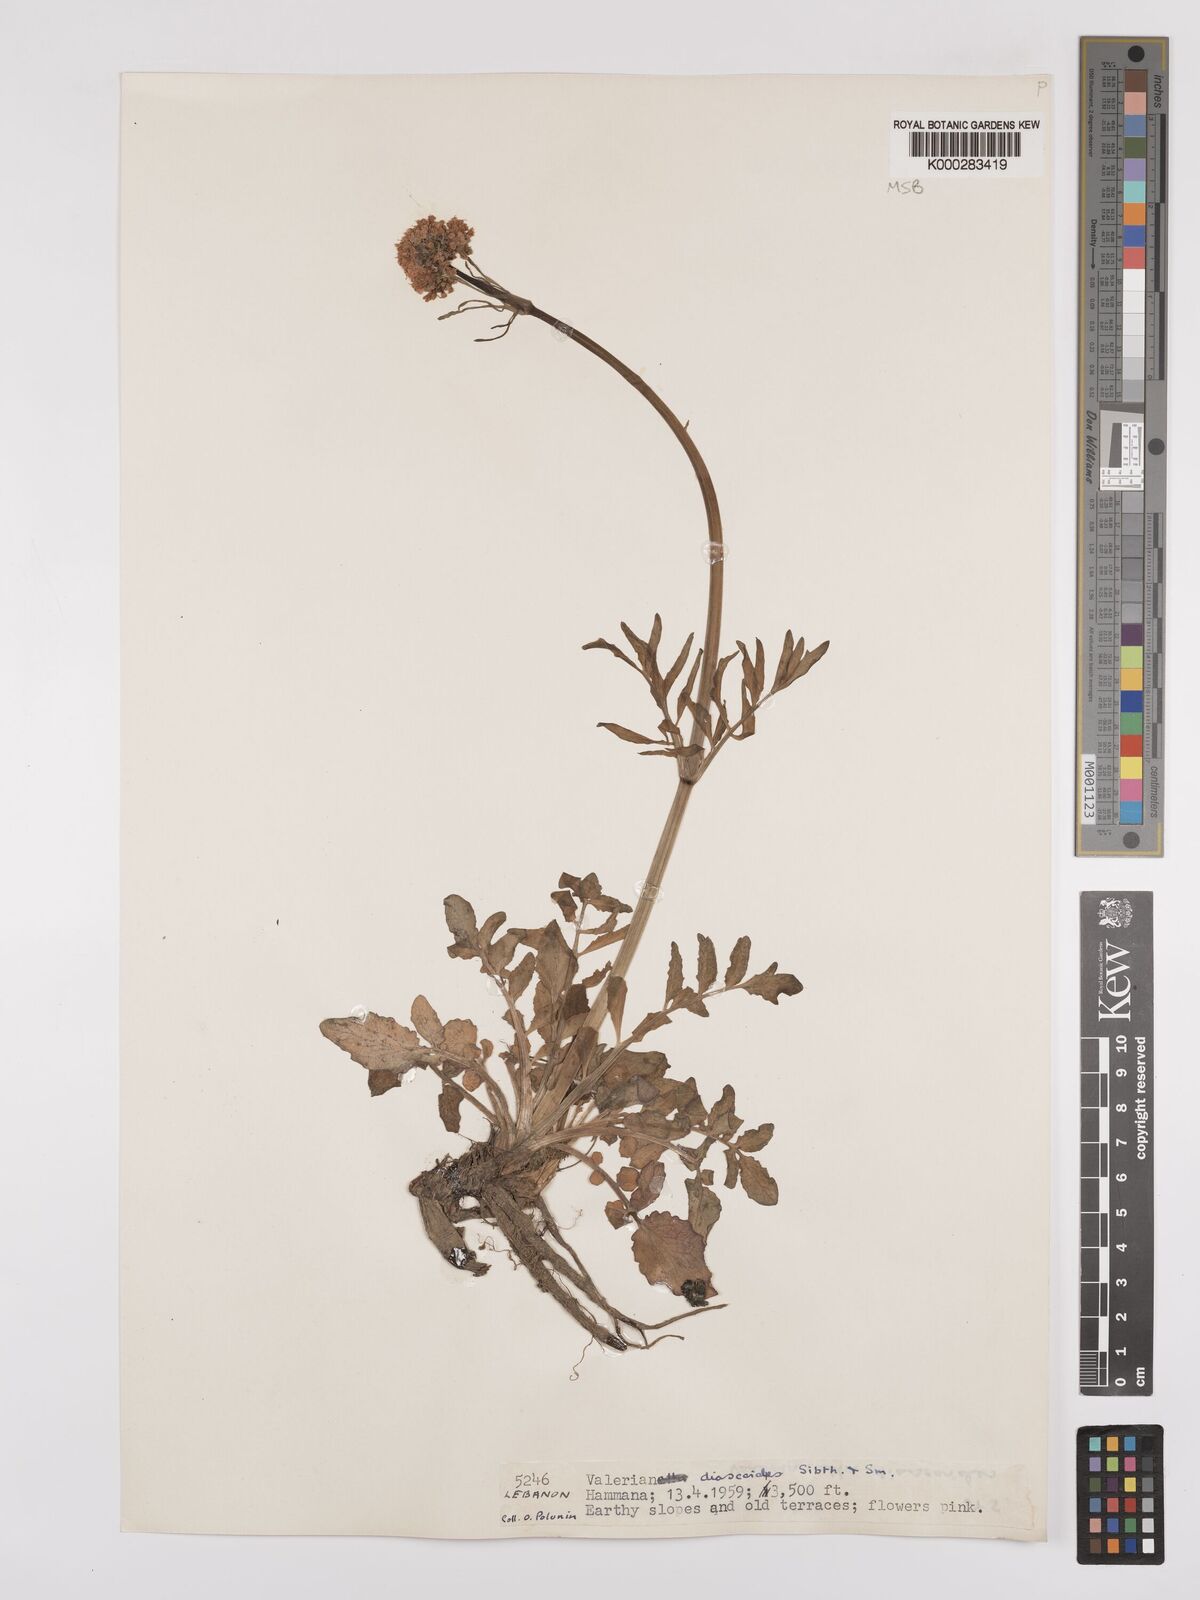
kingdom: Plantae
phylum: Tracheophyta
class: Magnoliopsida
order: Dipsacales
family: Caprifoliaceae
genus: Valeriana
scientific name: Valeriana dioscoridis
